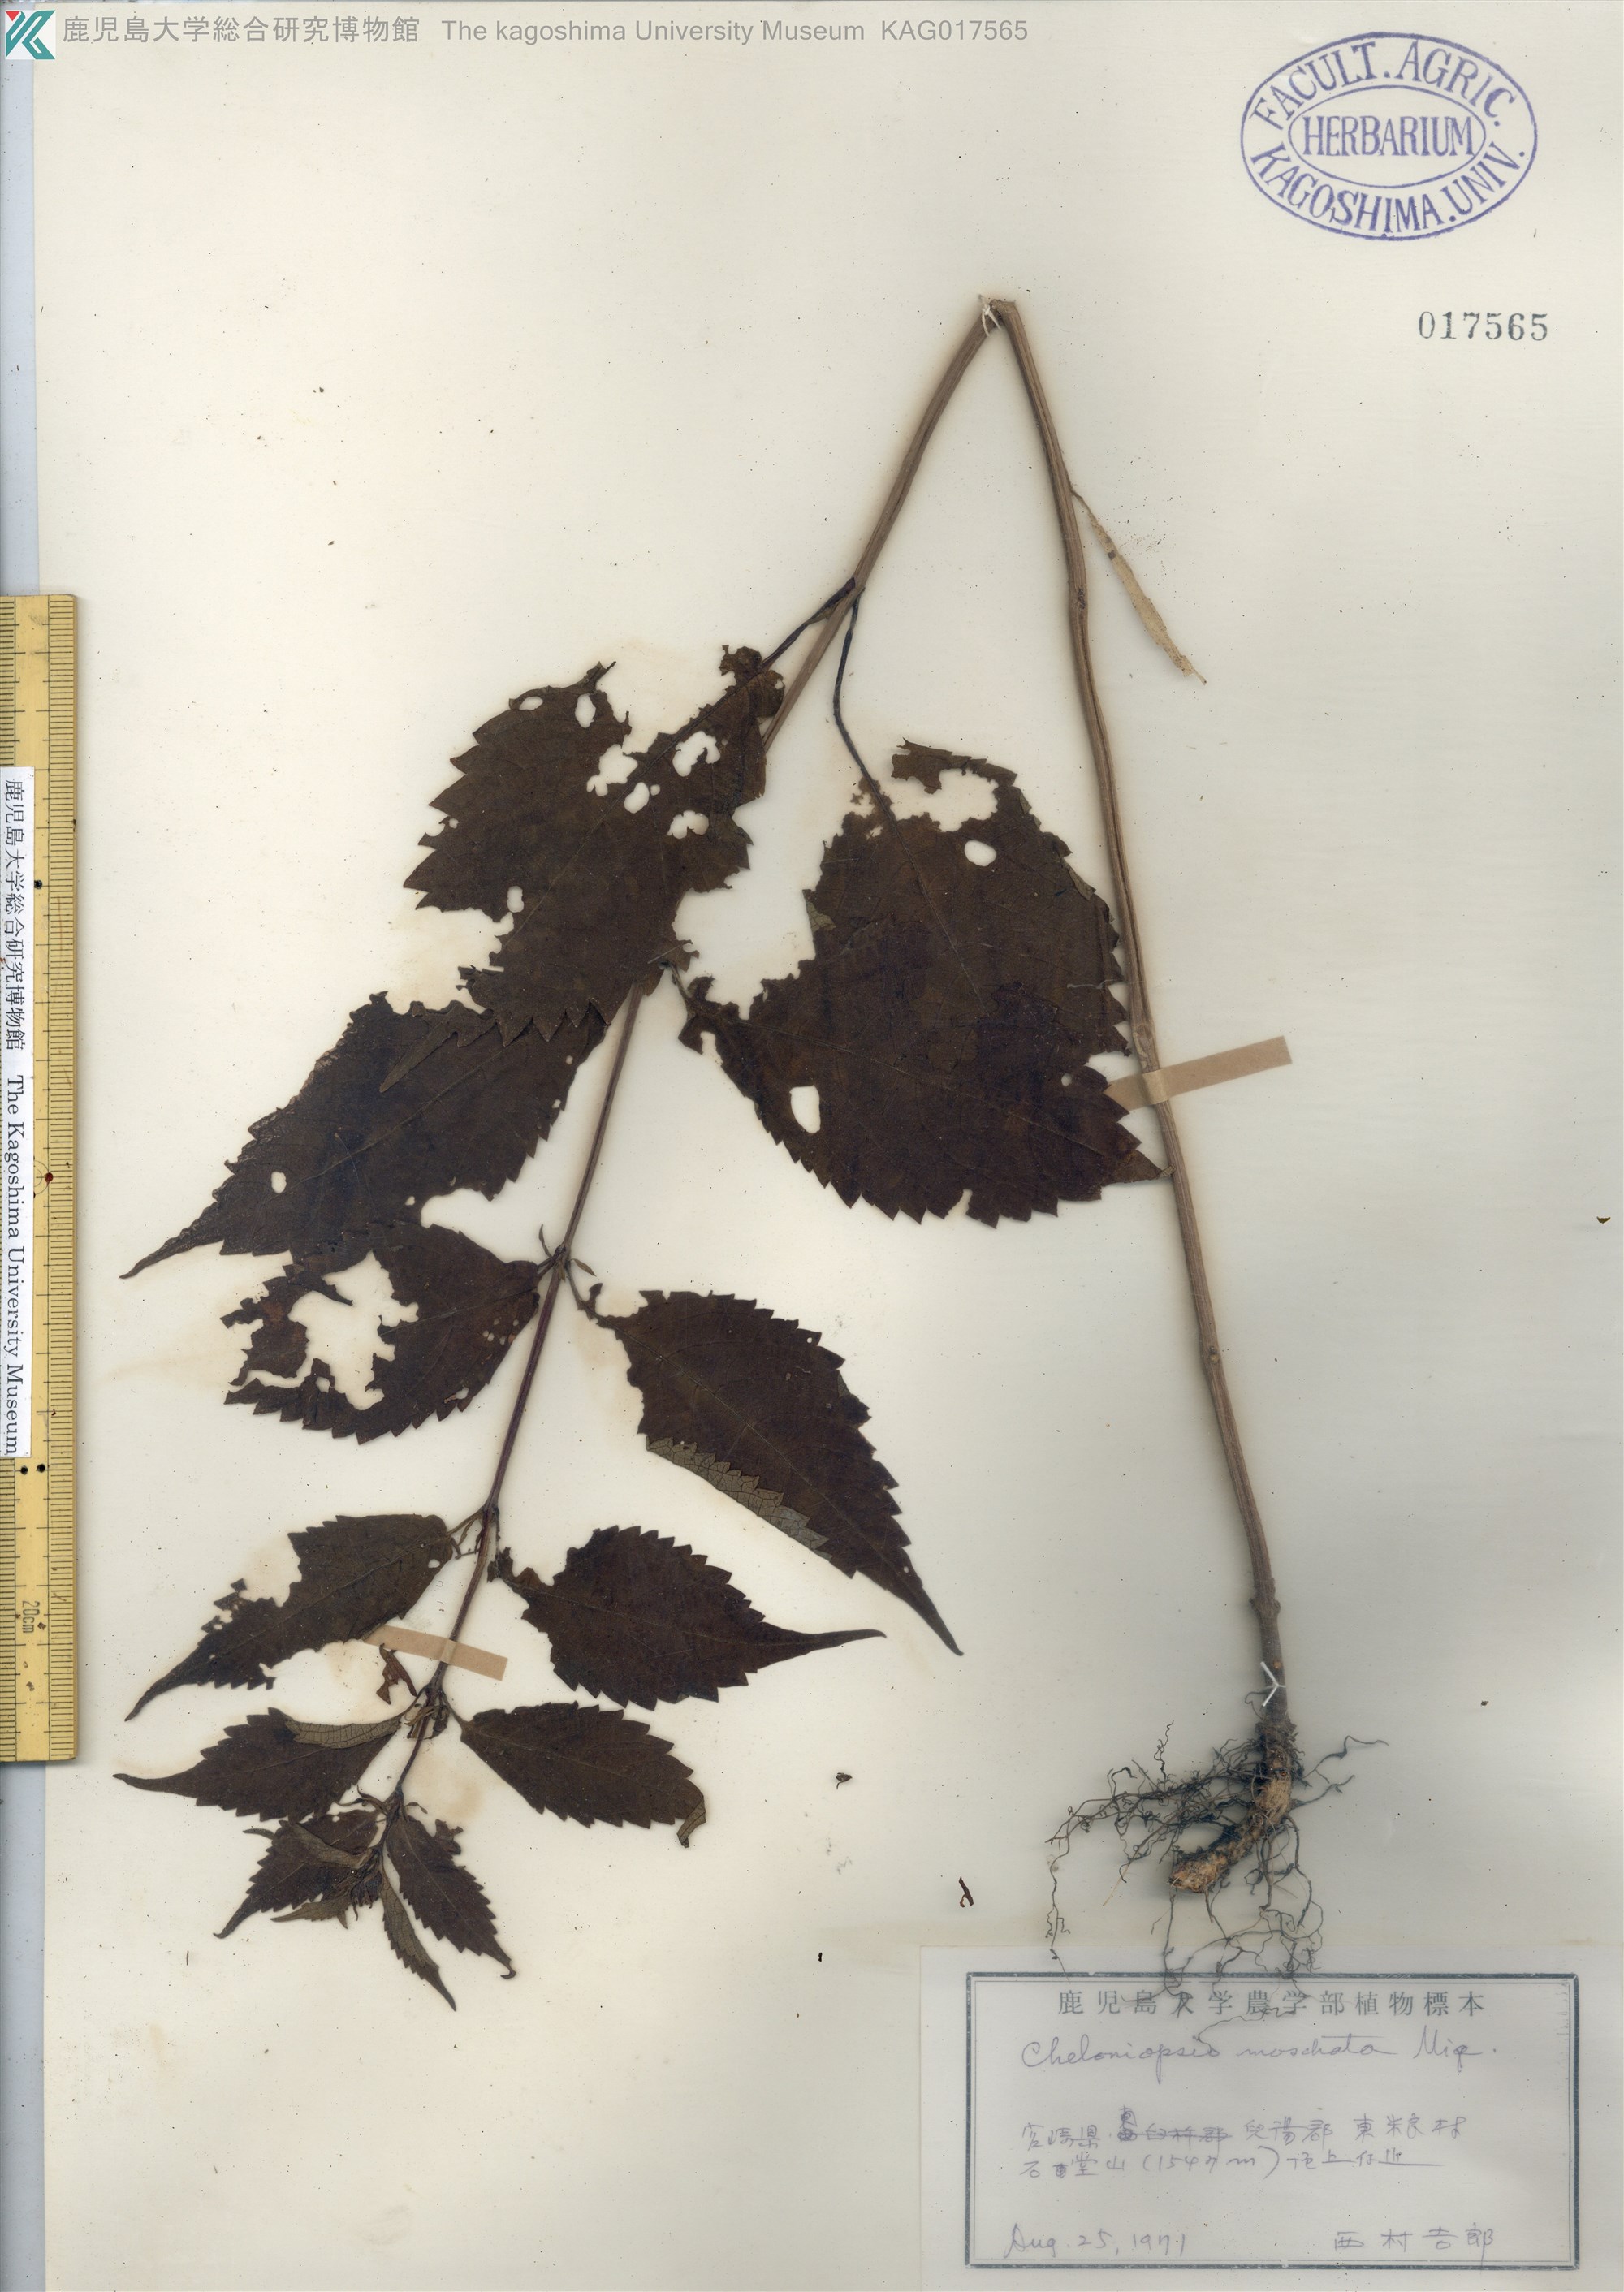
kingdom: Plantae
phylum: Tracheophyta
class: Magnoliopsida
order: Lamiales
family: Lamiaceae
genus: Chelonopsis
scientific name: Chelonopsis moschata
